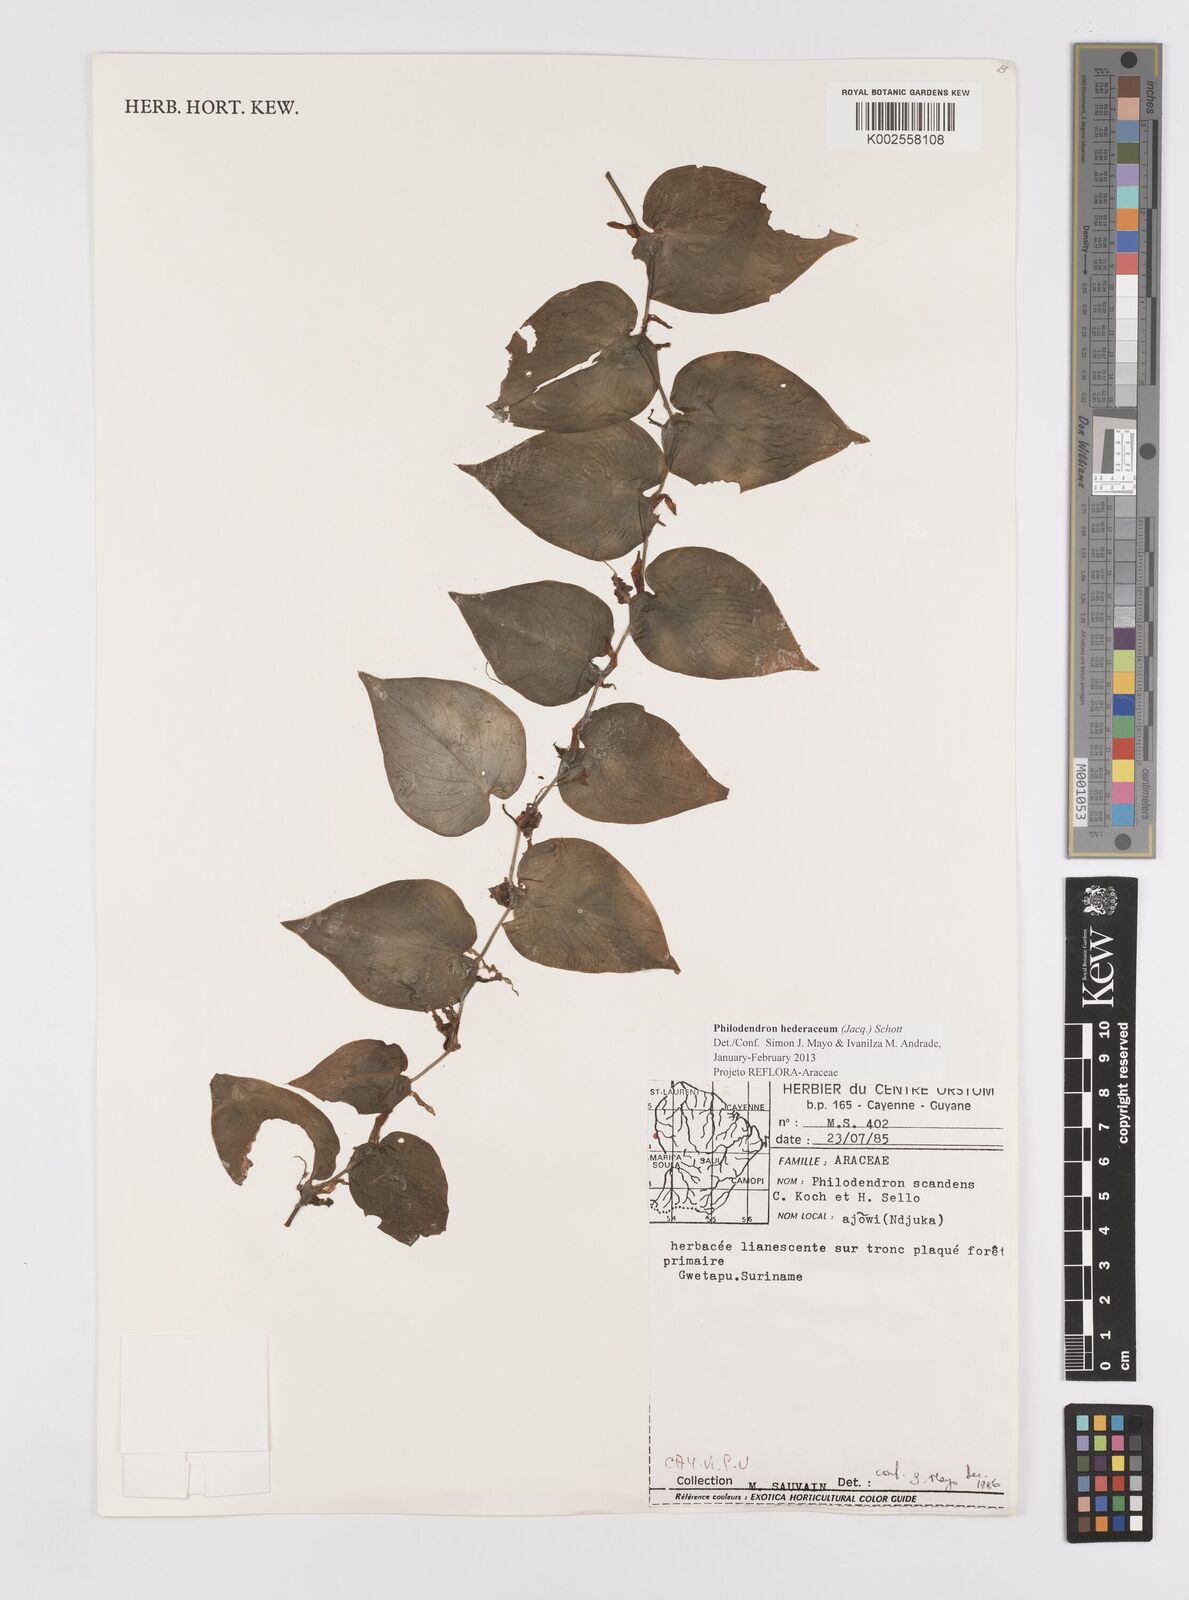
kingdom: Plantae
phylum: Tracheophyta
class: Liliopsida
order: Alismatales
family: Araceae
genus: Philodendron
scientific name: Philodendron hederaceum
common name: Vilevine
